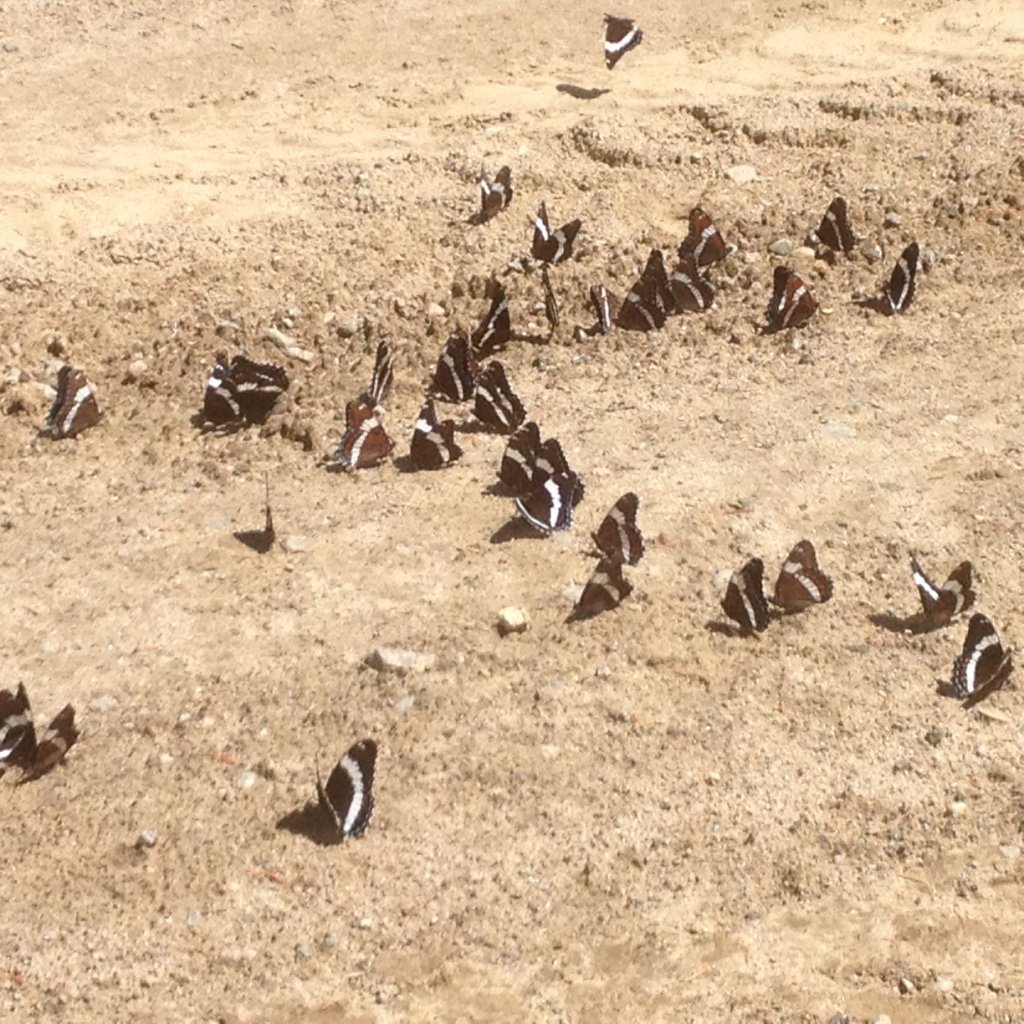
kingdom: Animalia
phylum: Arthropoda
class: Insecta
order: Lepidoptera
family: Nymphalidae
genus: Limenitis
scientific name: Limenitis arthemis
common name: Red-spotted Admiral
